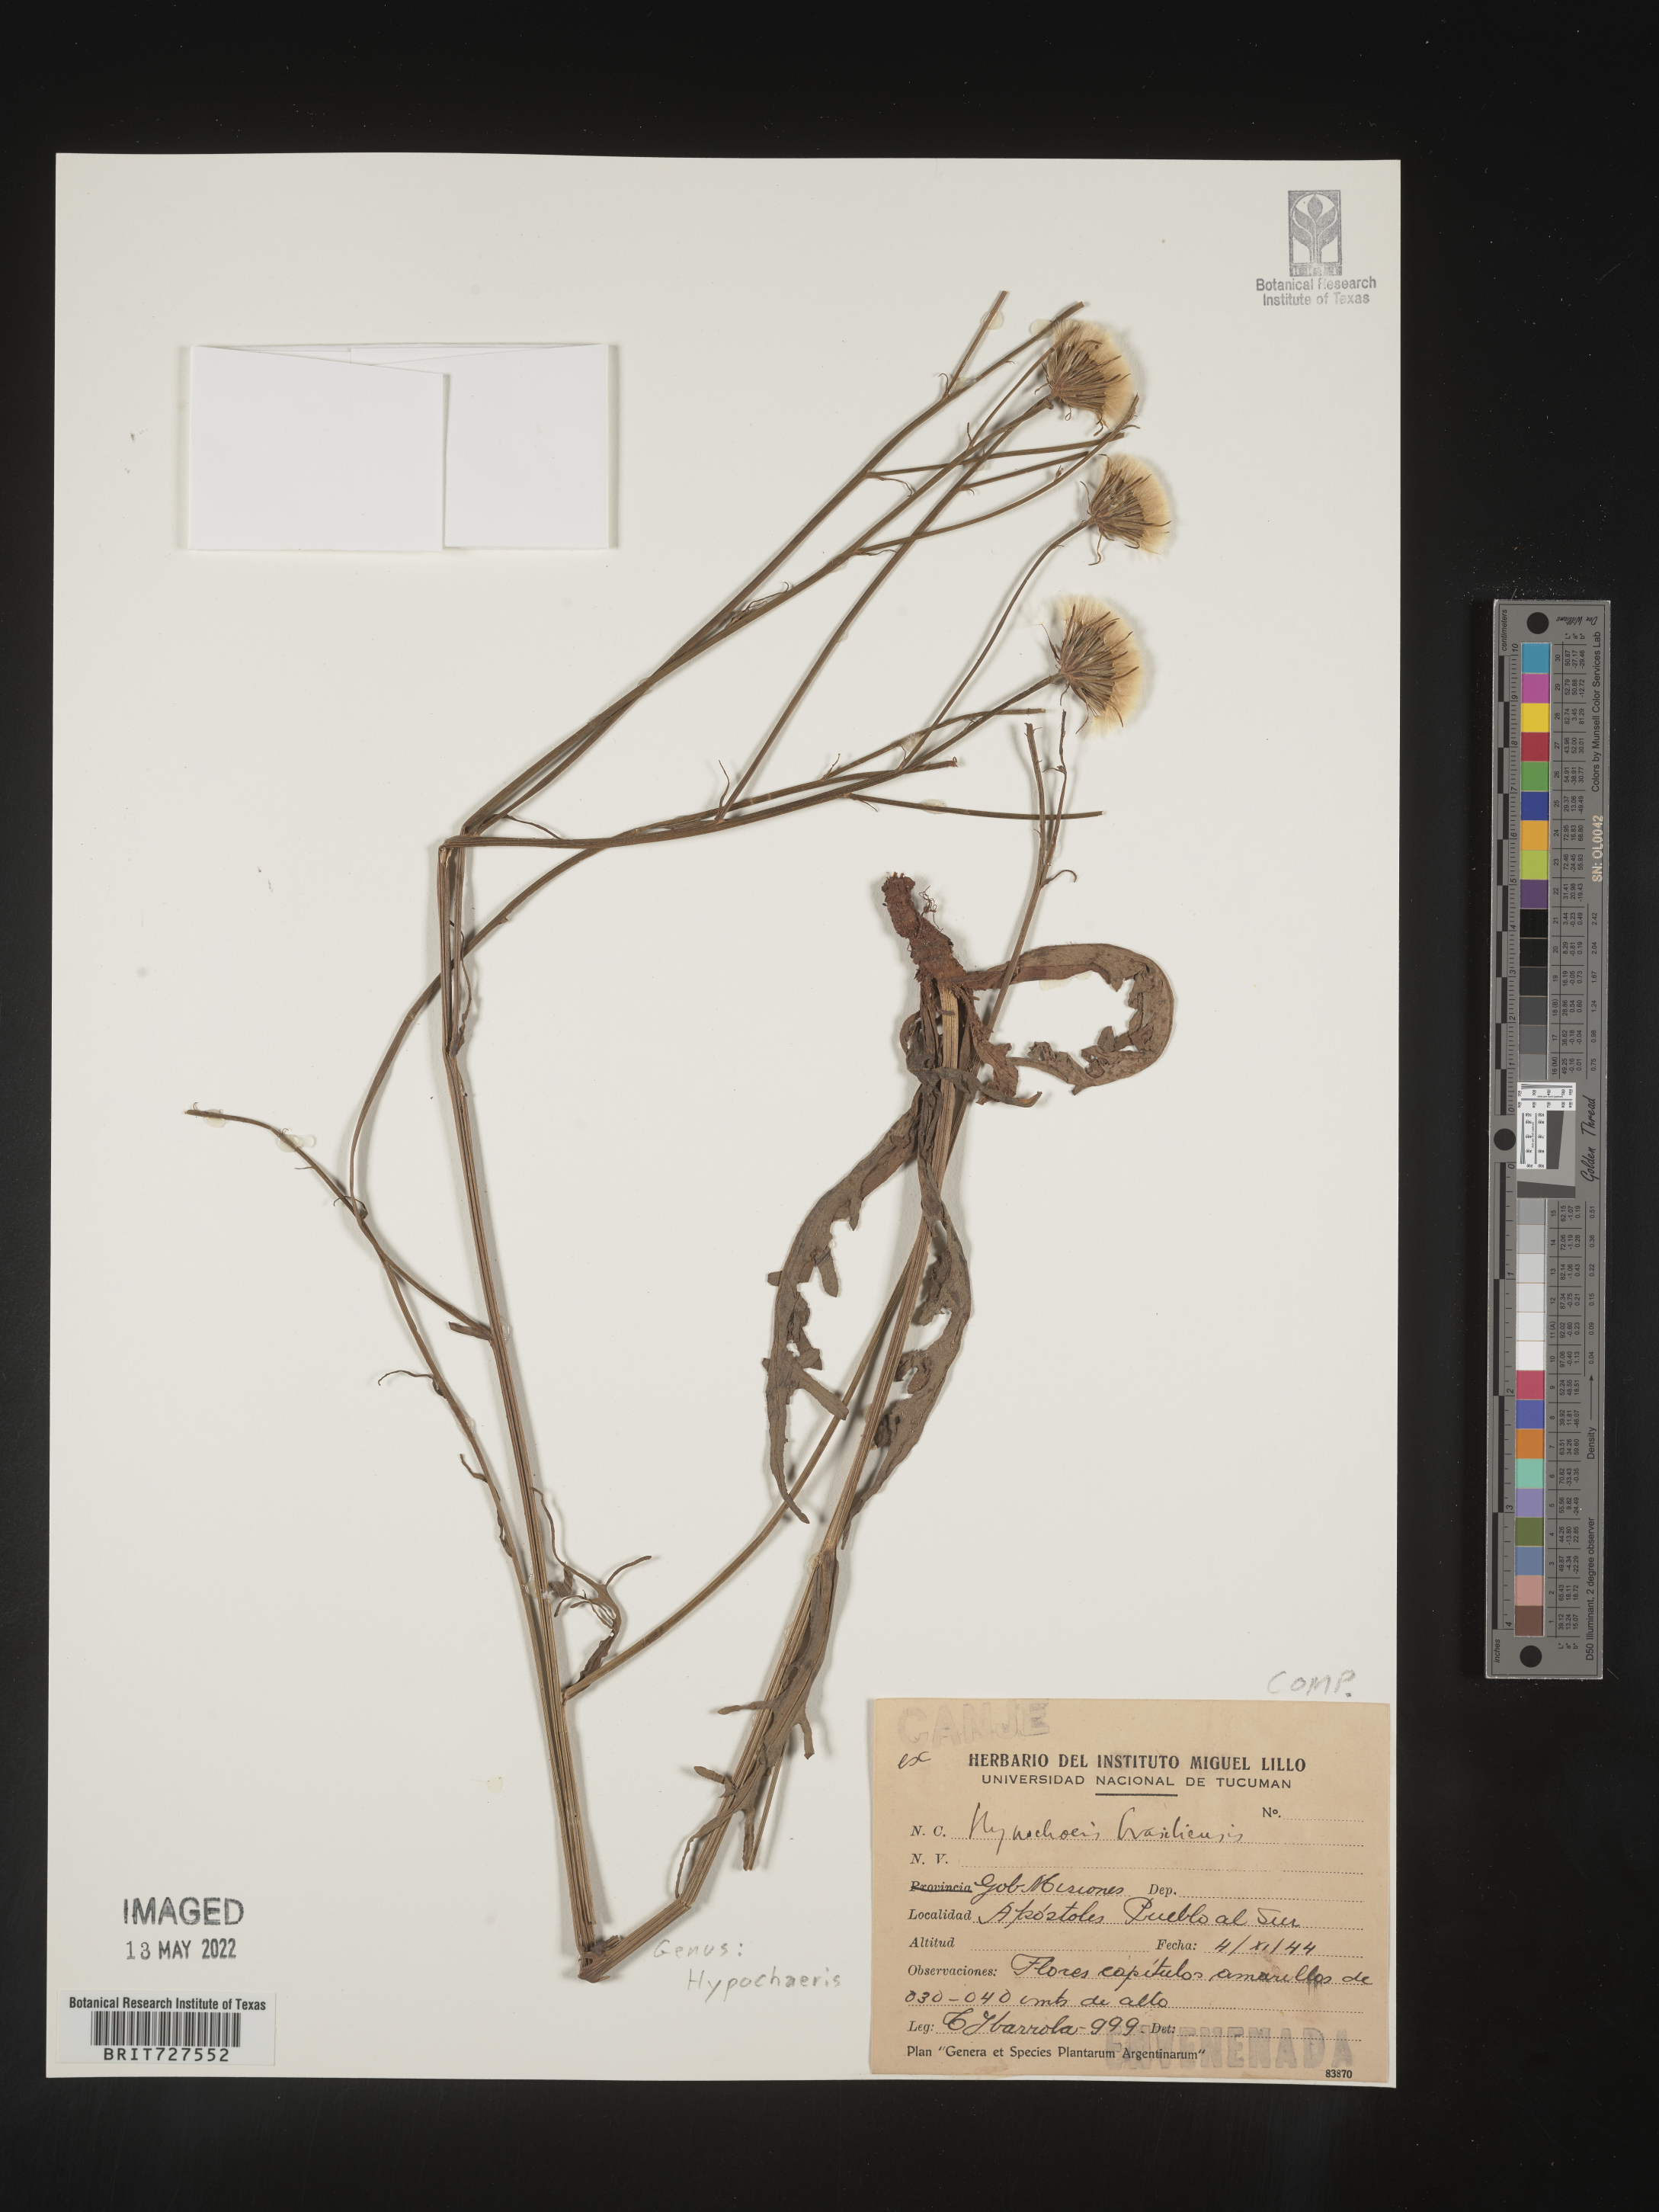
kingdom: Plantae
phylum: Tracheophyta
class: Magnoliopsida
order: Asterales
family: Asteraceae
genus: Hypochaeris
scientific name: Hypochaeris
